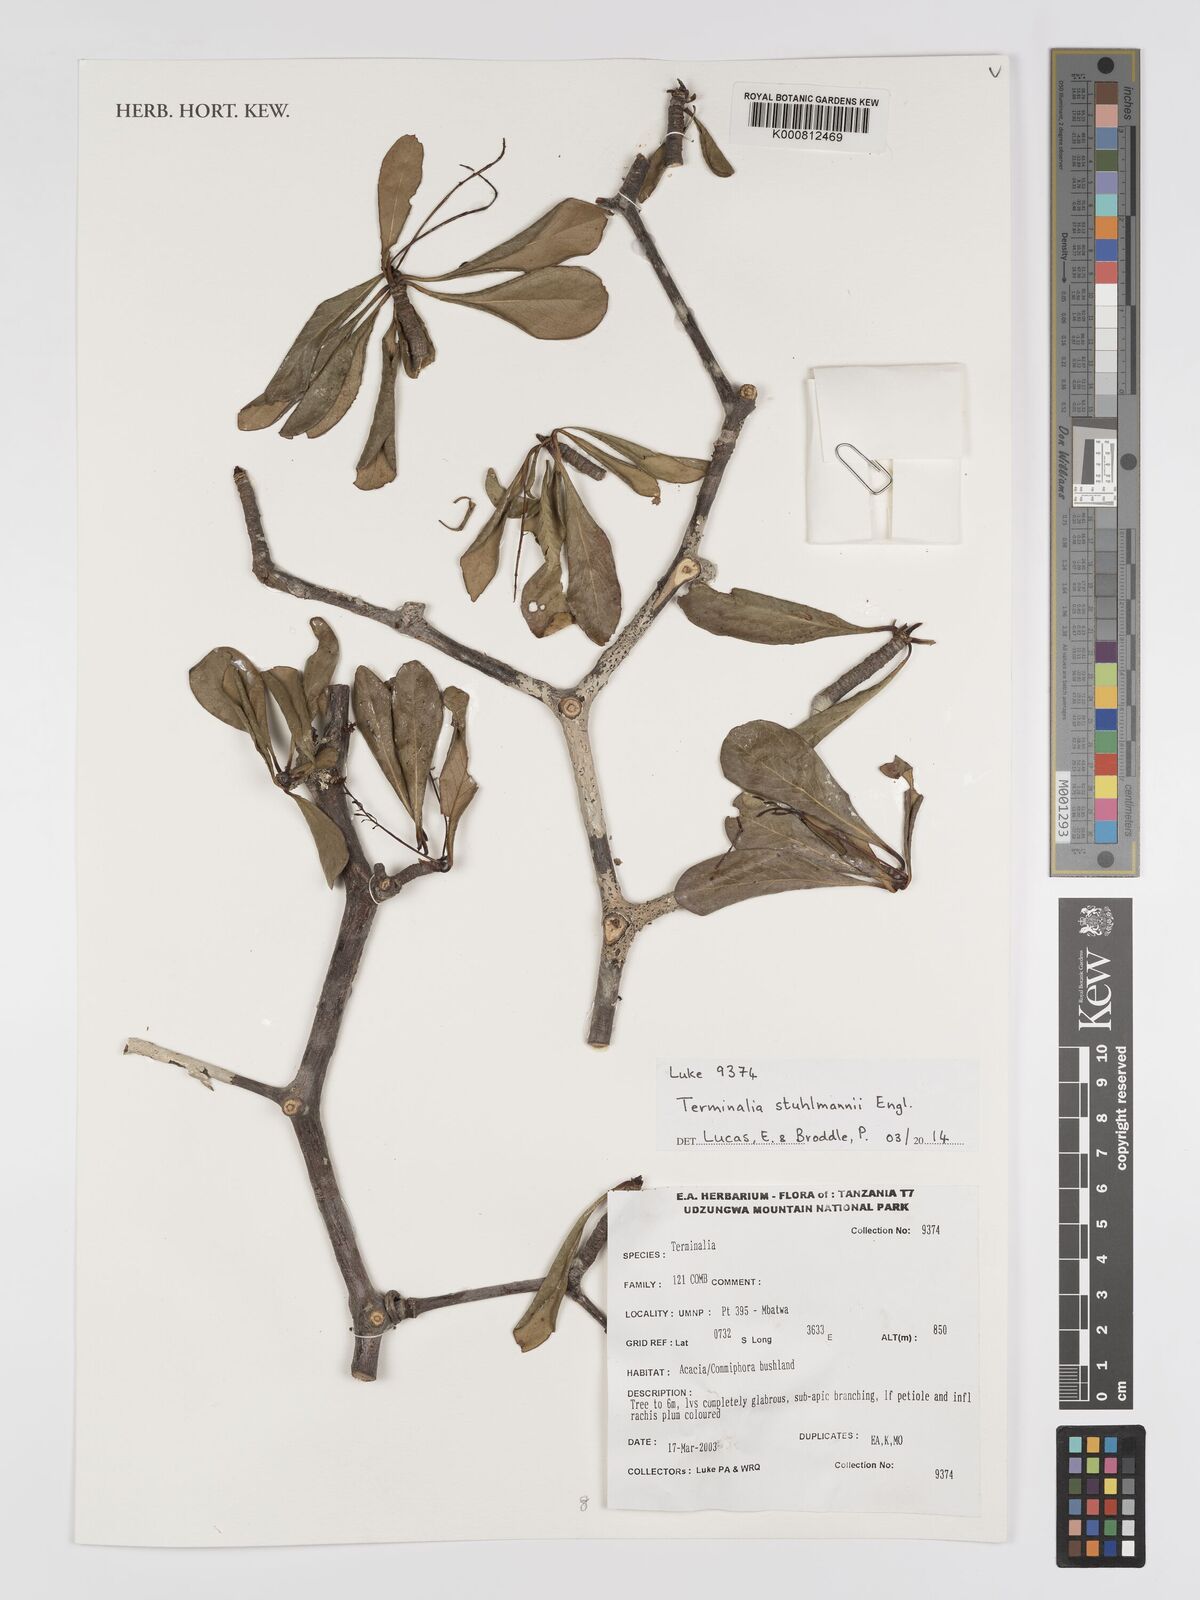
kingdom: Plantae
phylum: Tracheophyta
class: Magnoliopsida
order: Myrtales
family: Combretaceae
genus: Terminalia
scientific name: Terminalia stuhlmannii
